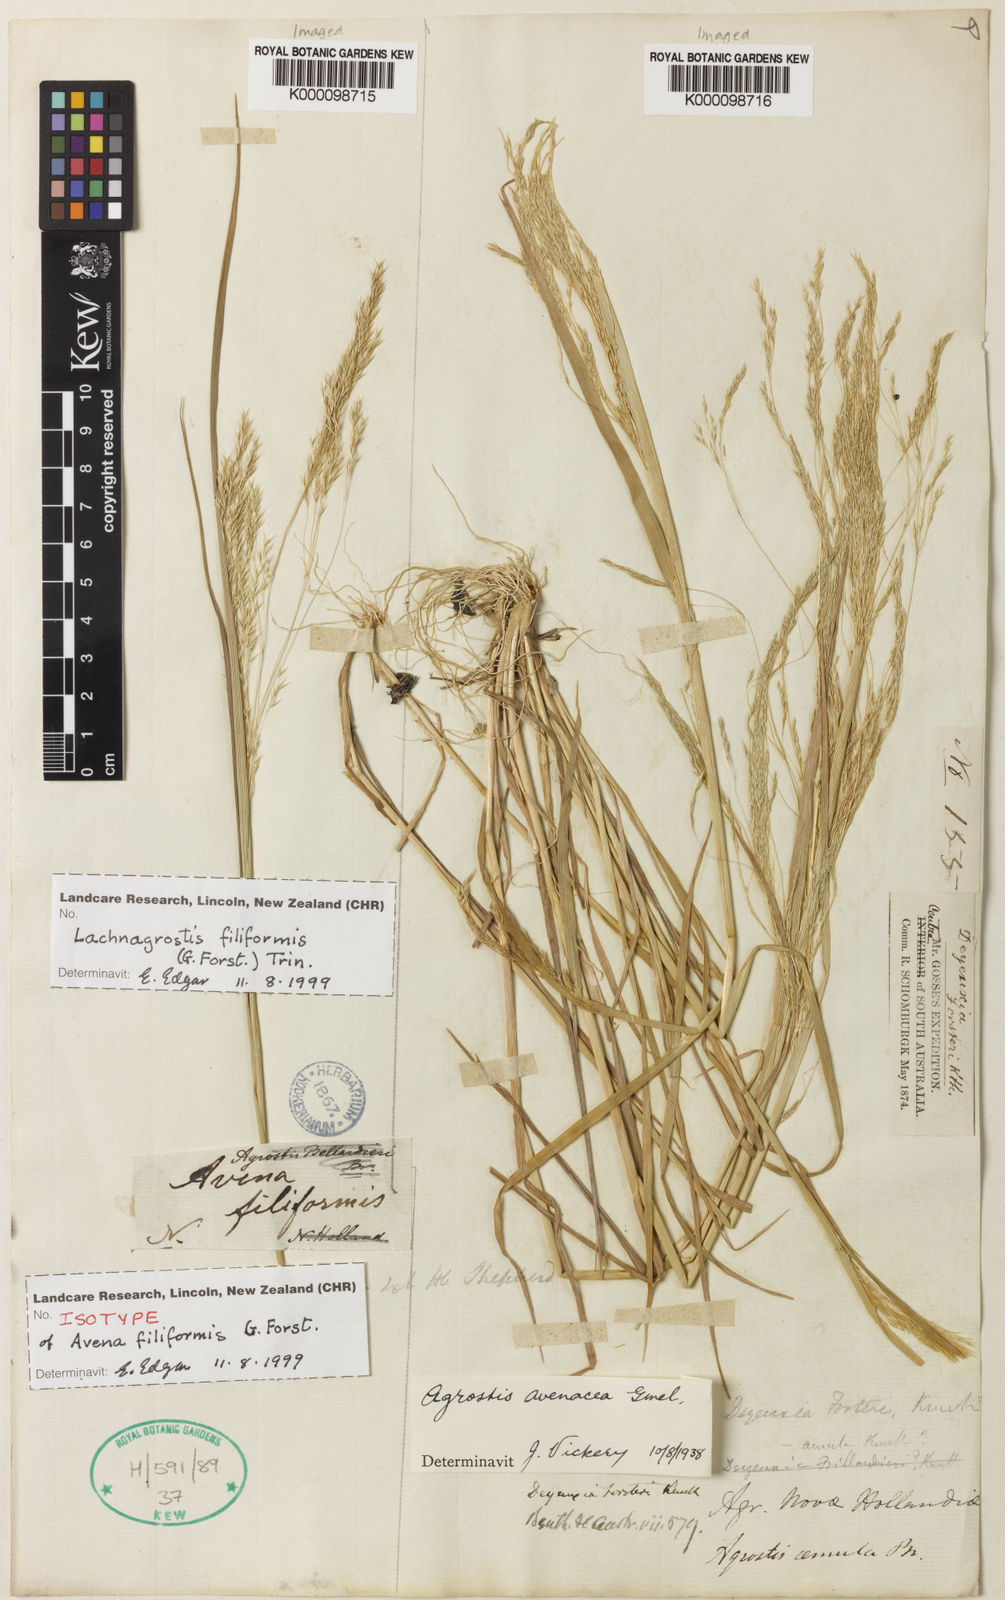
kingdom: Plantae
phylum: Tracheophyta
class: Liliopsida
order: Poales
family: Poaceae
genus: Lachnagrostis
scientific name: Lachnagrostis filiformis
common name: Bentgrass
